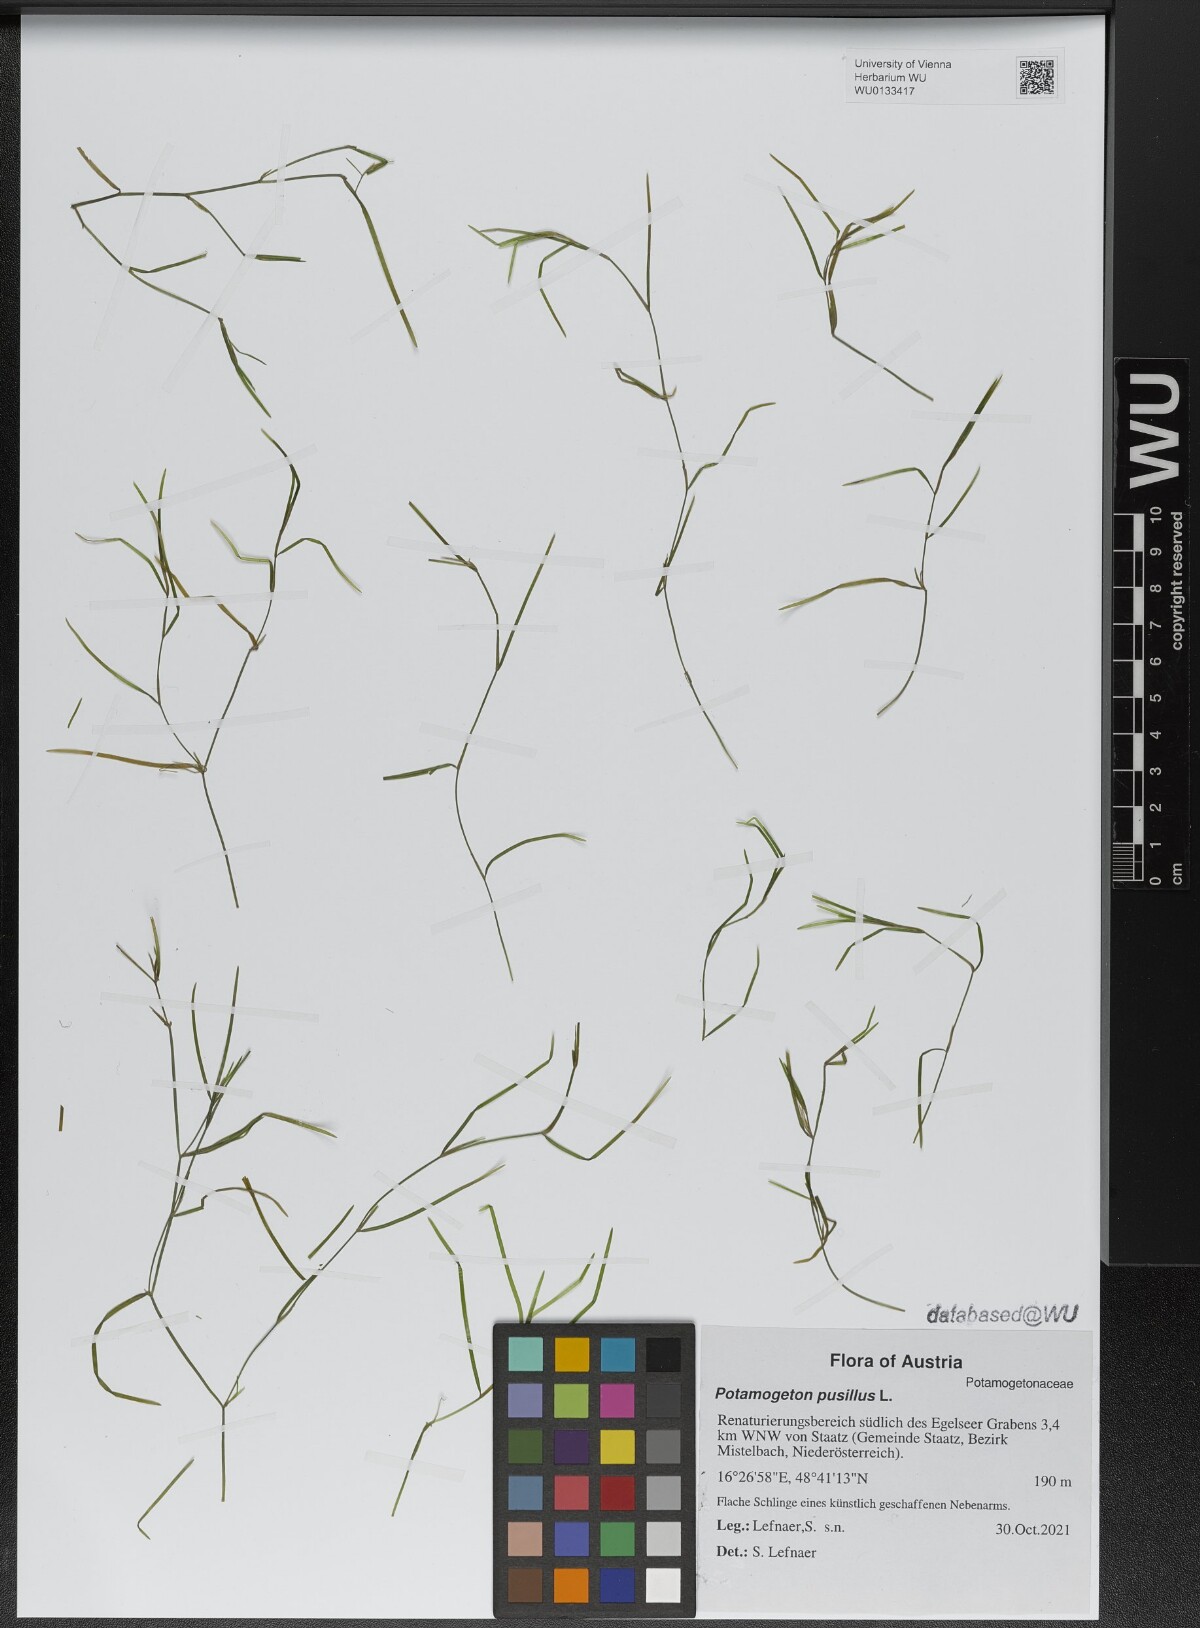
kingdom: Plantae
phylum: Tracheophyta
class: Liliopsida
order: Alismatales
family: Potamogetonaceae
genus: Potamogeton
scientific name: Potamogeton pusillus
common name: Lesser pondweed
